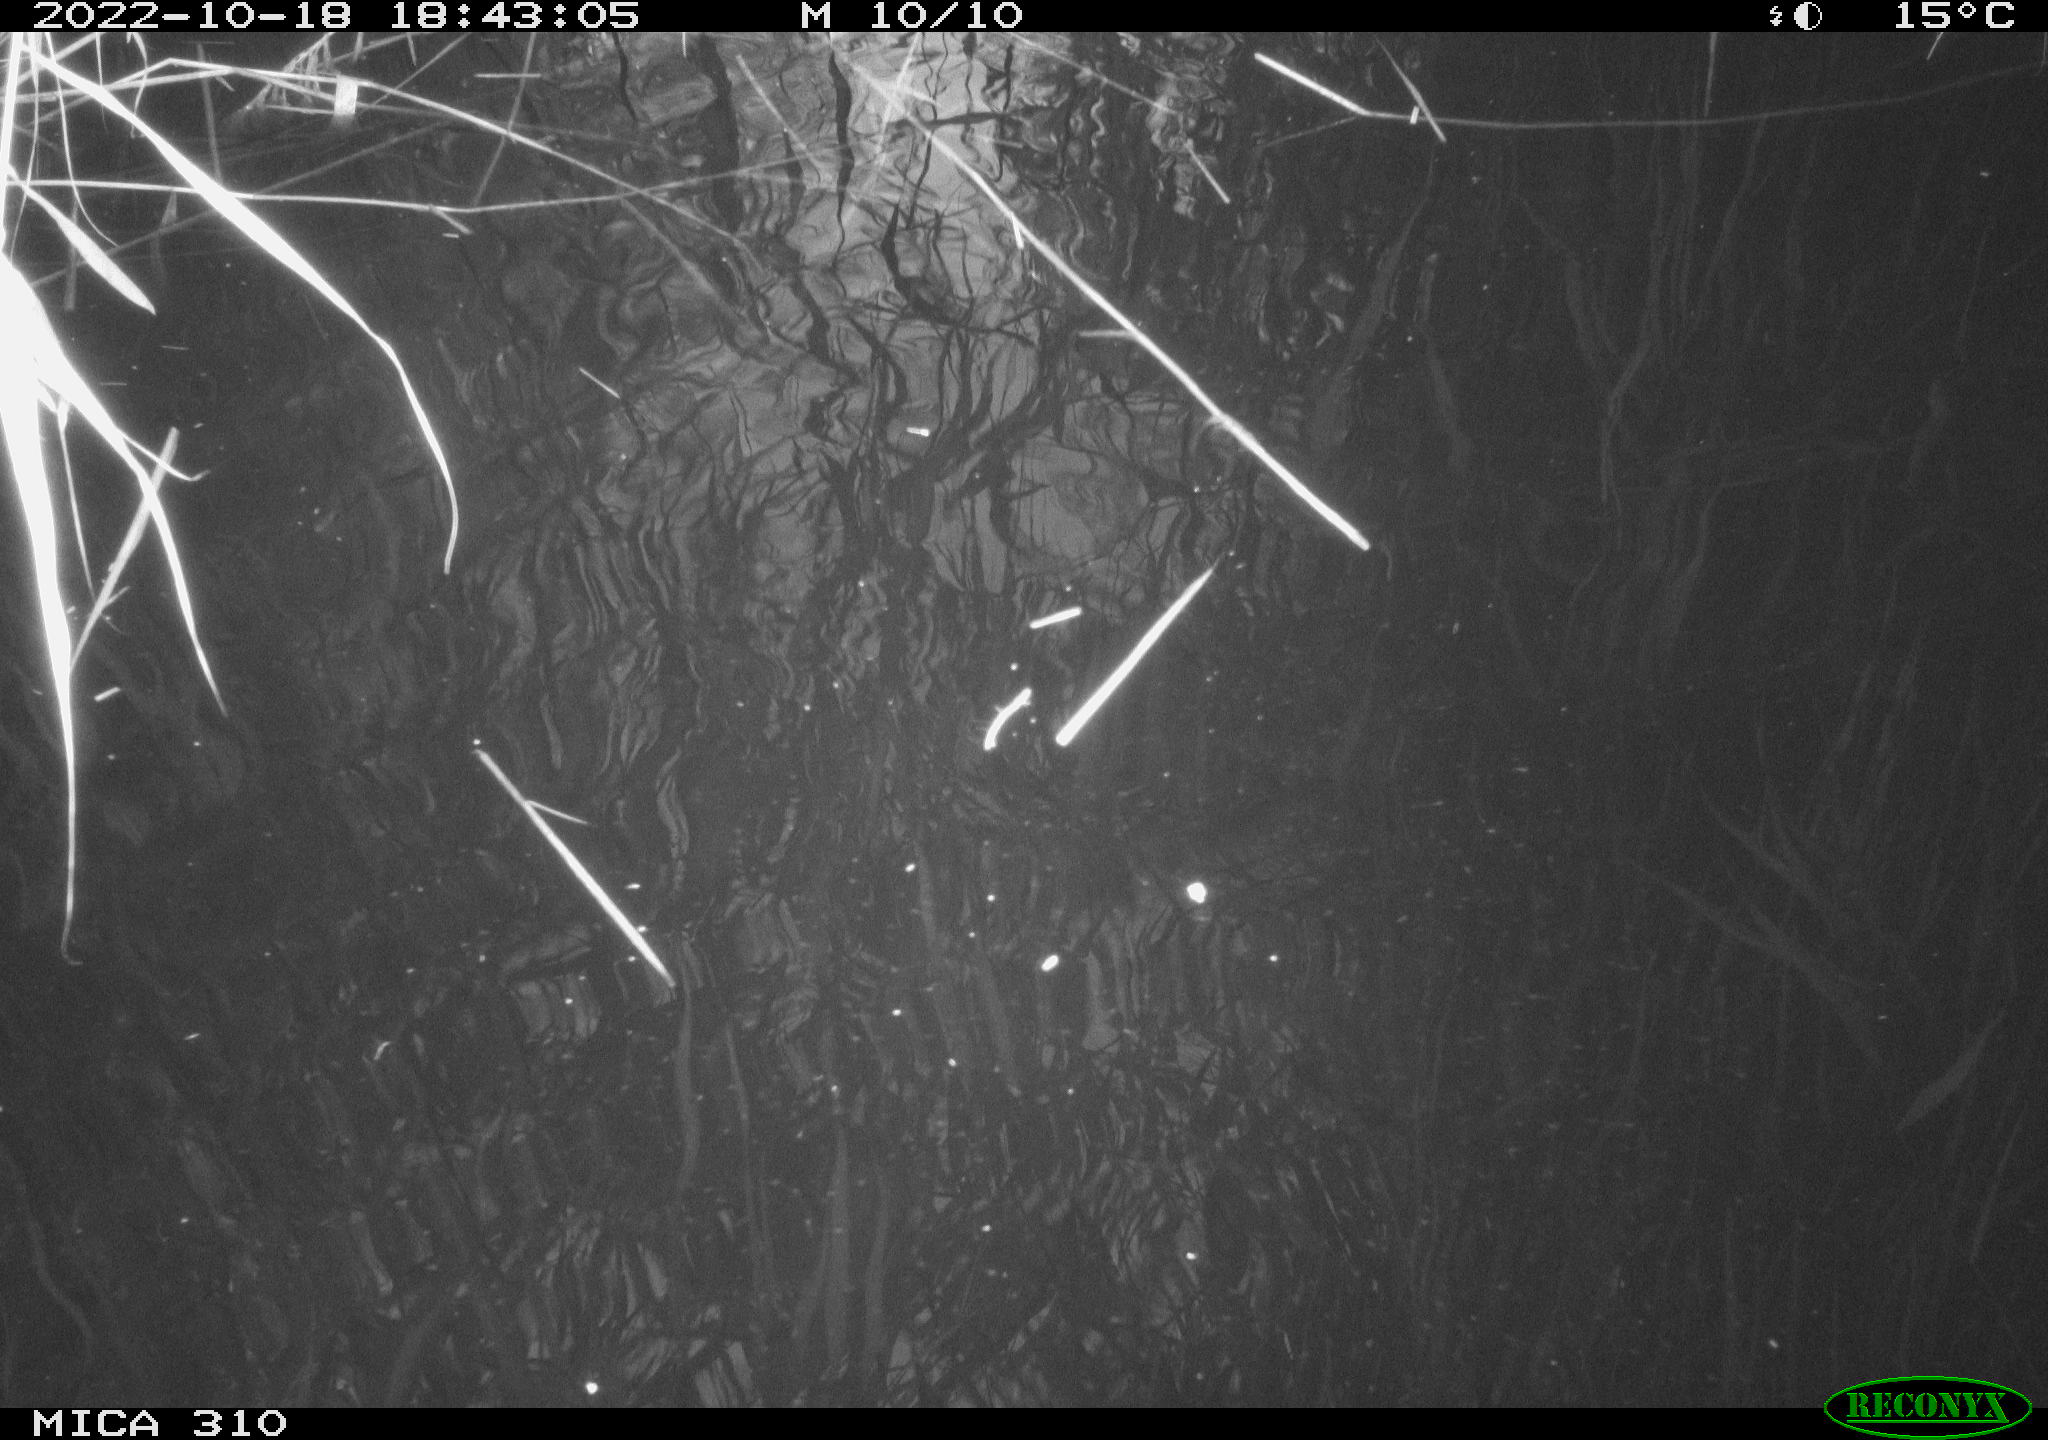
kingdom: Animalia
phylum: Chordata
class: Aves
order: Anseriformes
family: Anatidae
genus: Anas
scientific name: Anas
